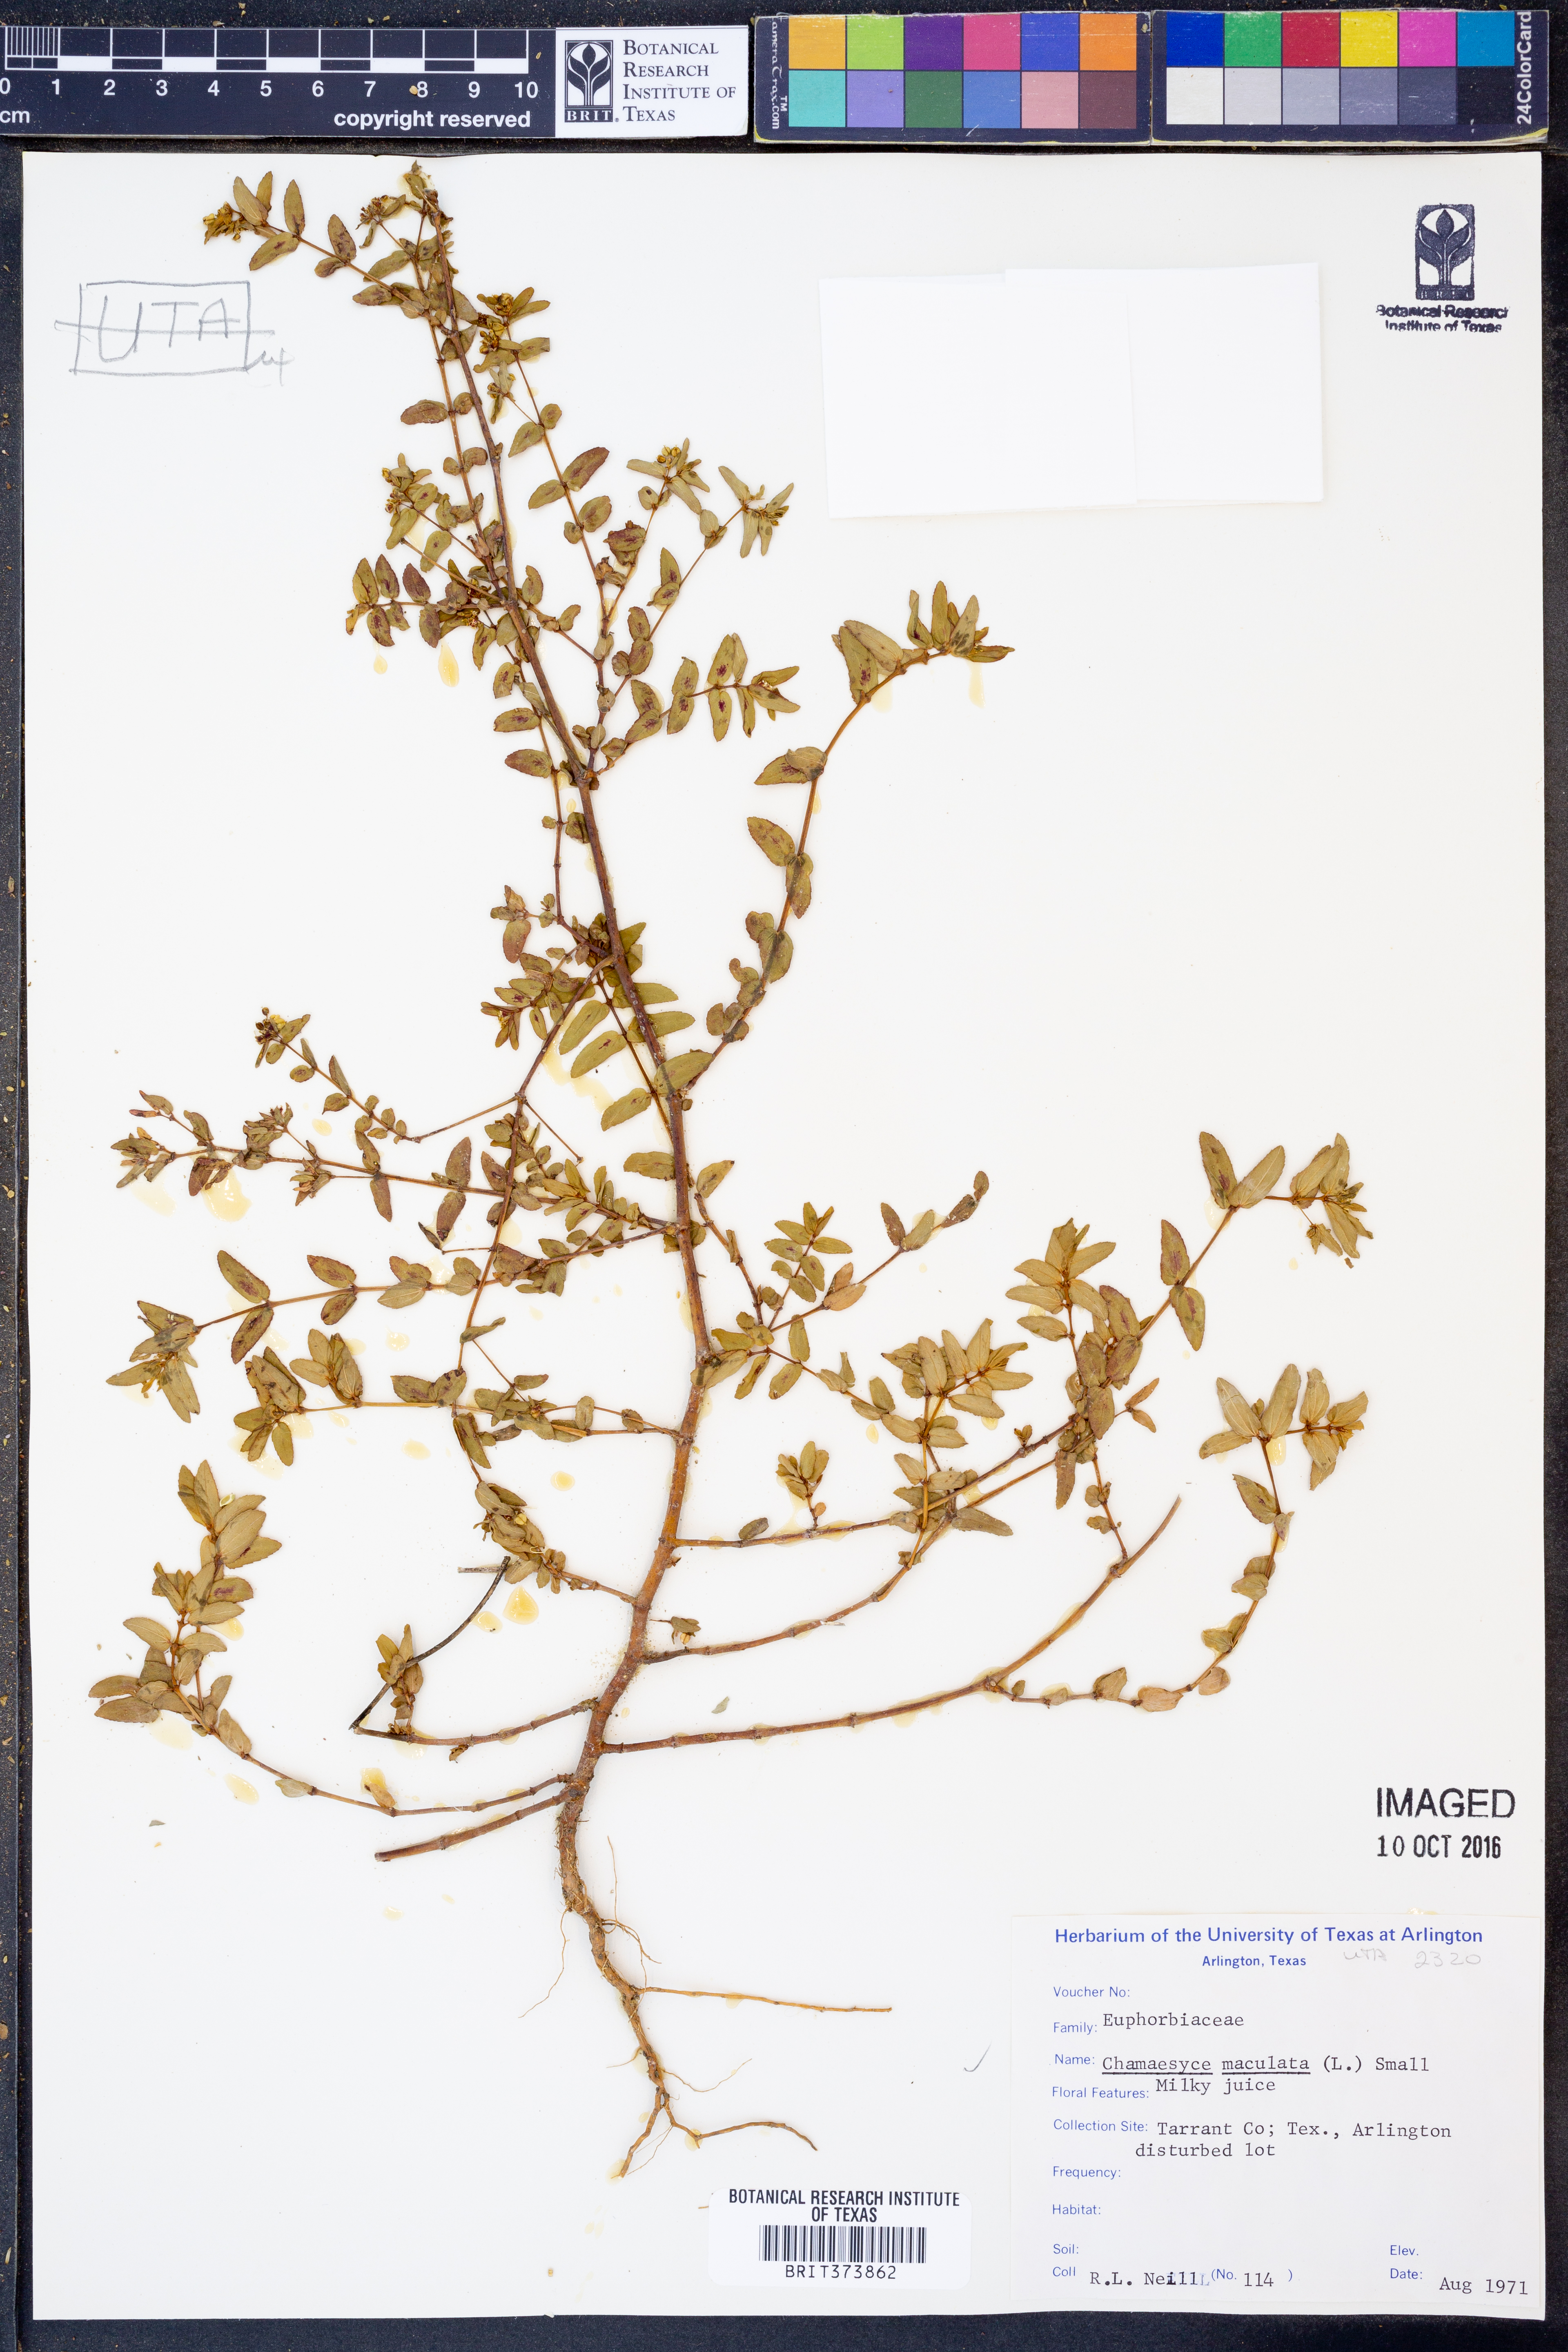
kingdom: Plantae
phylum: Tracheophyta
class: Magnoliopsida
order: Malpighiales
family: Euphorbiaceae
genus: Euphorbia
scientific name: Euphorbia maculata
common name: Spotted spurge
